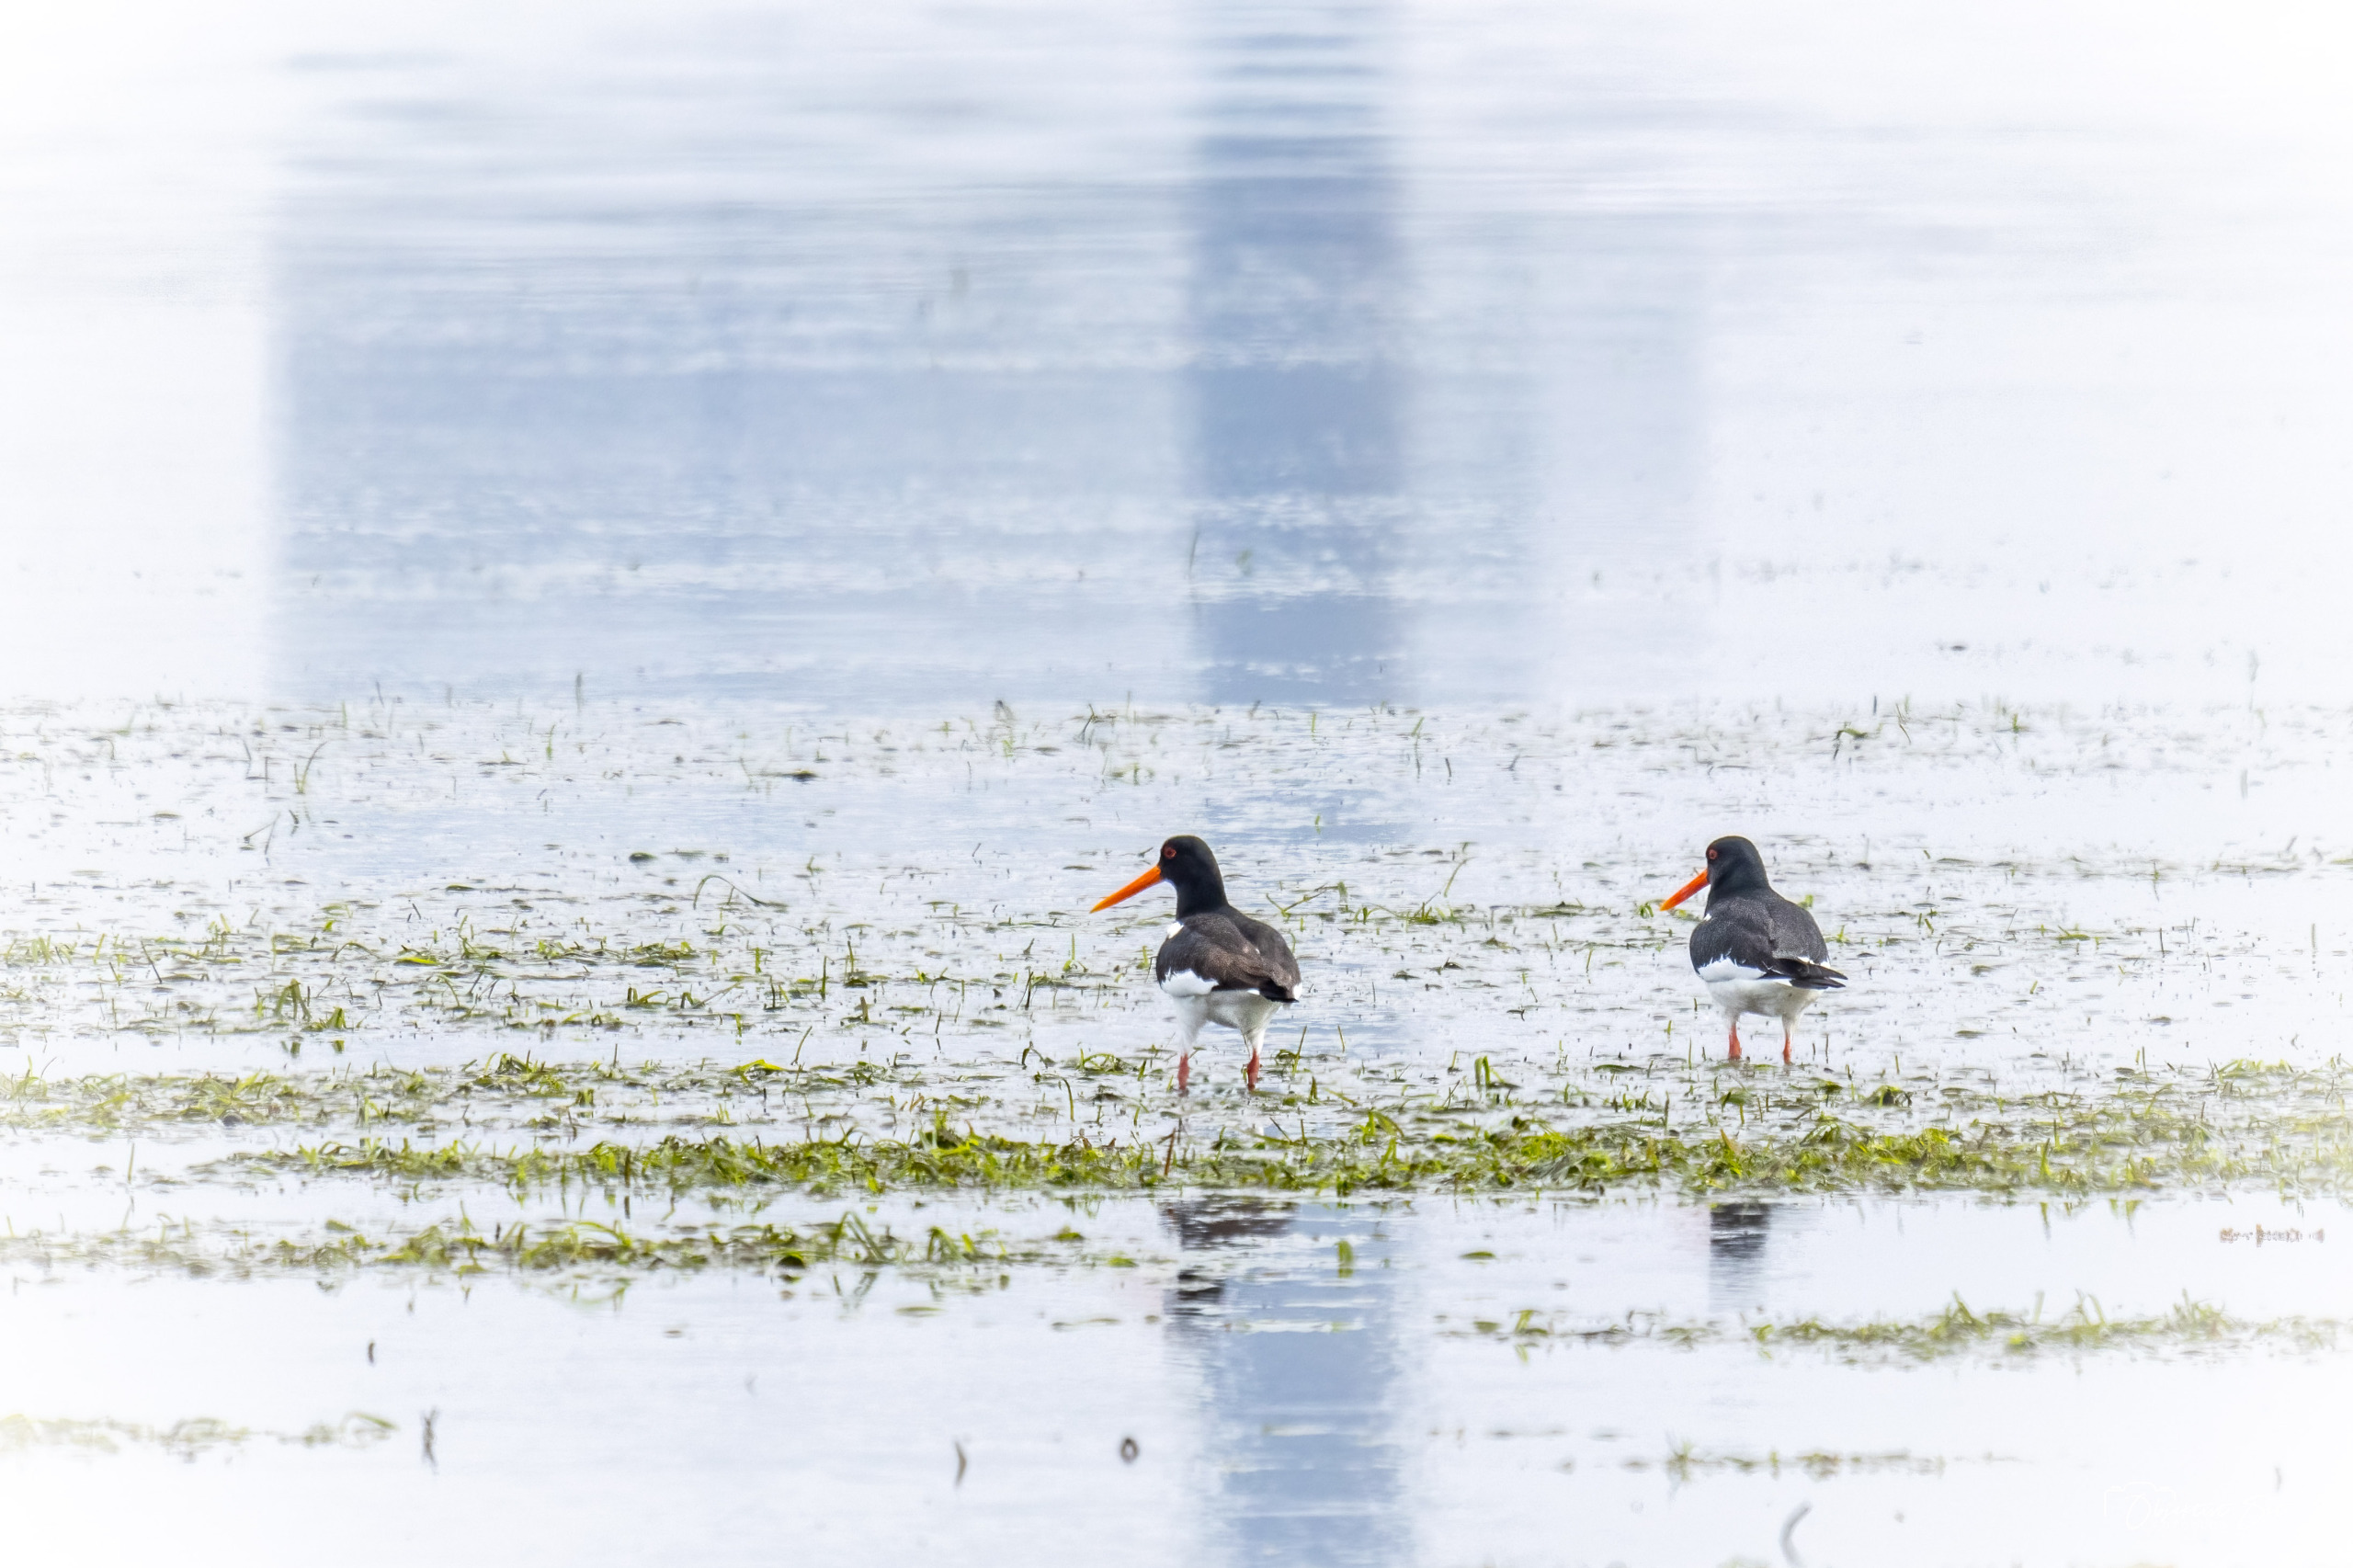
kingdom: Animalia
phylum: Chordata
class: Aves
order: Charadriiformes
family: Haematopodidae
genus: Haematopus
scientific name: Haematopus ostralegus
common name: Strandskade
